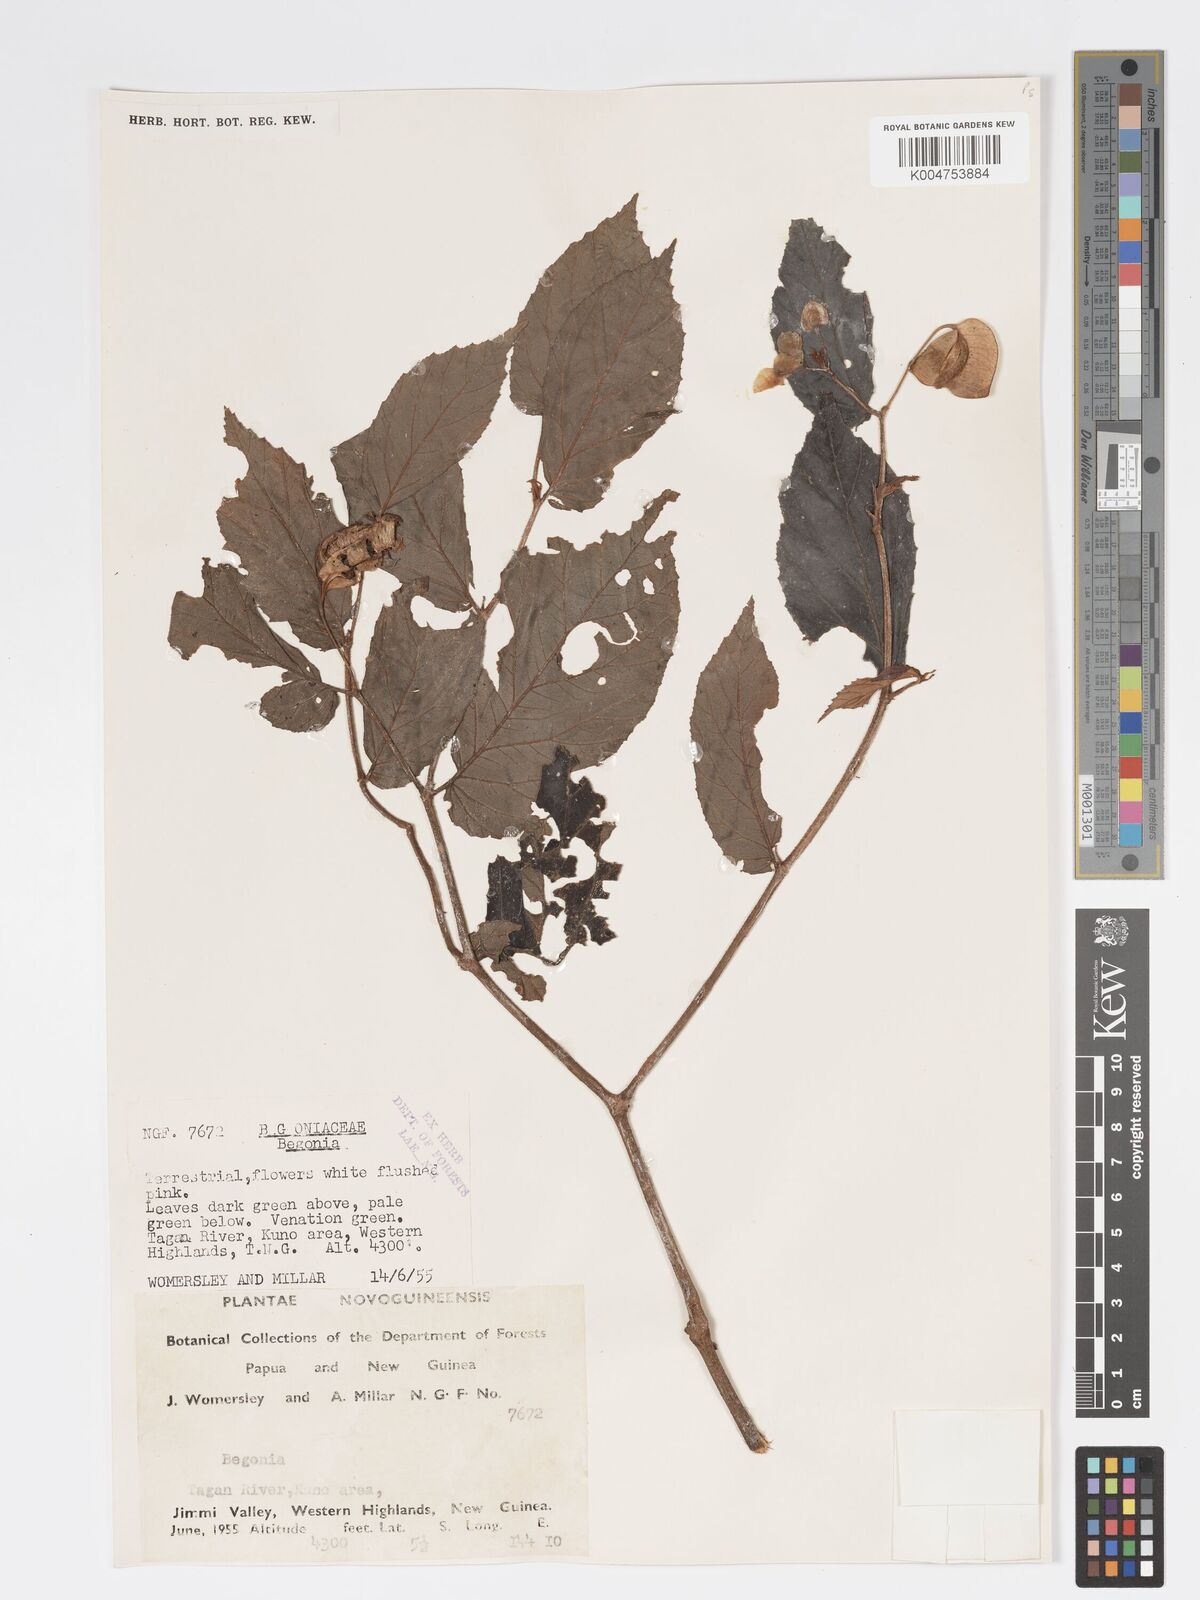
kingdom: Plantae
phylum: Tracheophyta
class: Magnoliopsida
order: Cucurbitales
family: Begoniaceae
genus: Begonia
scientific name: Begonia
